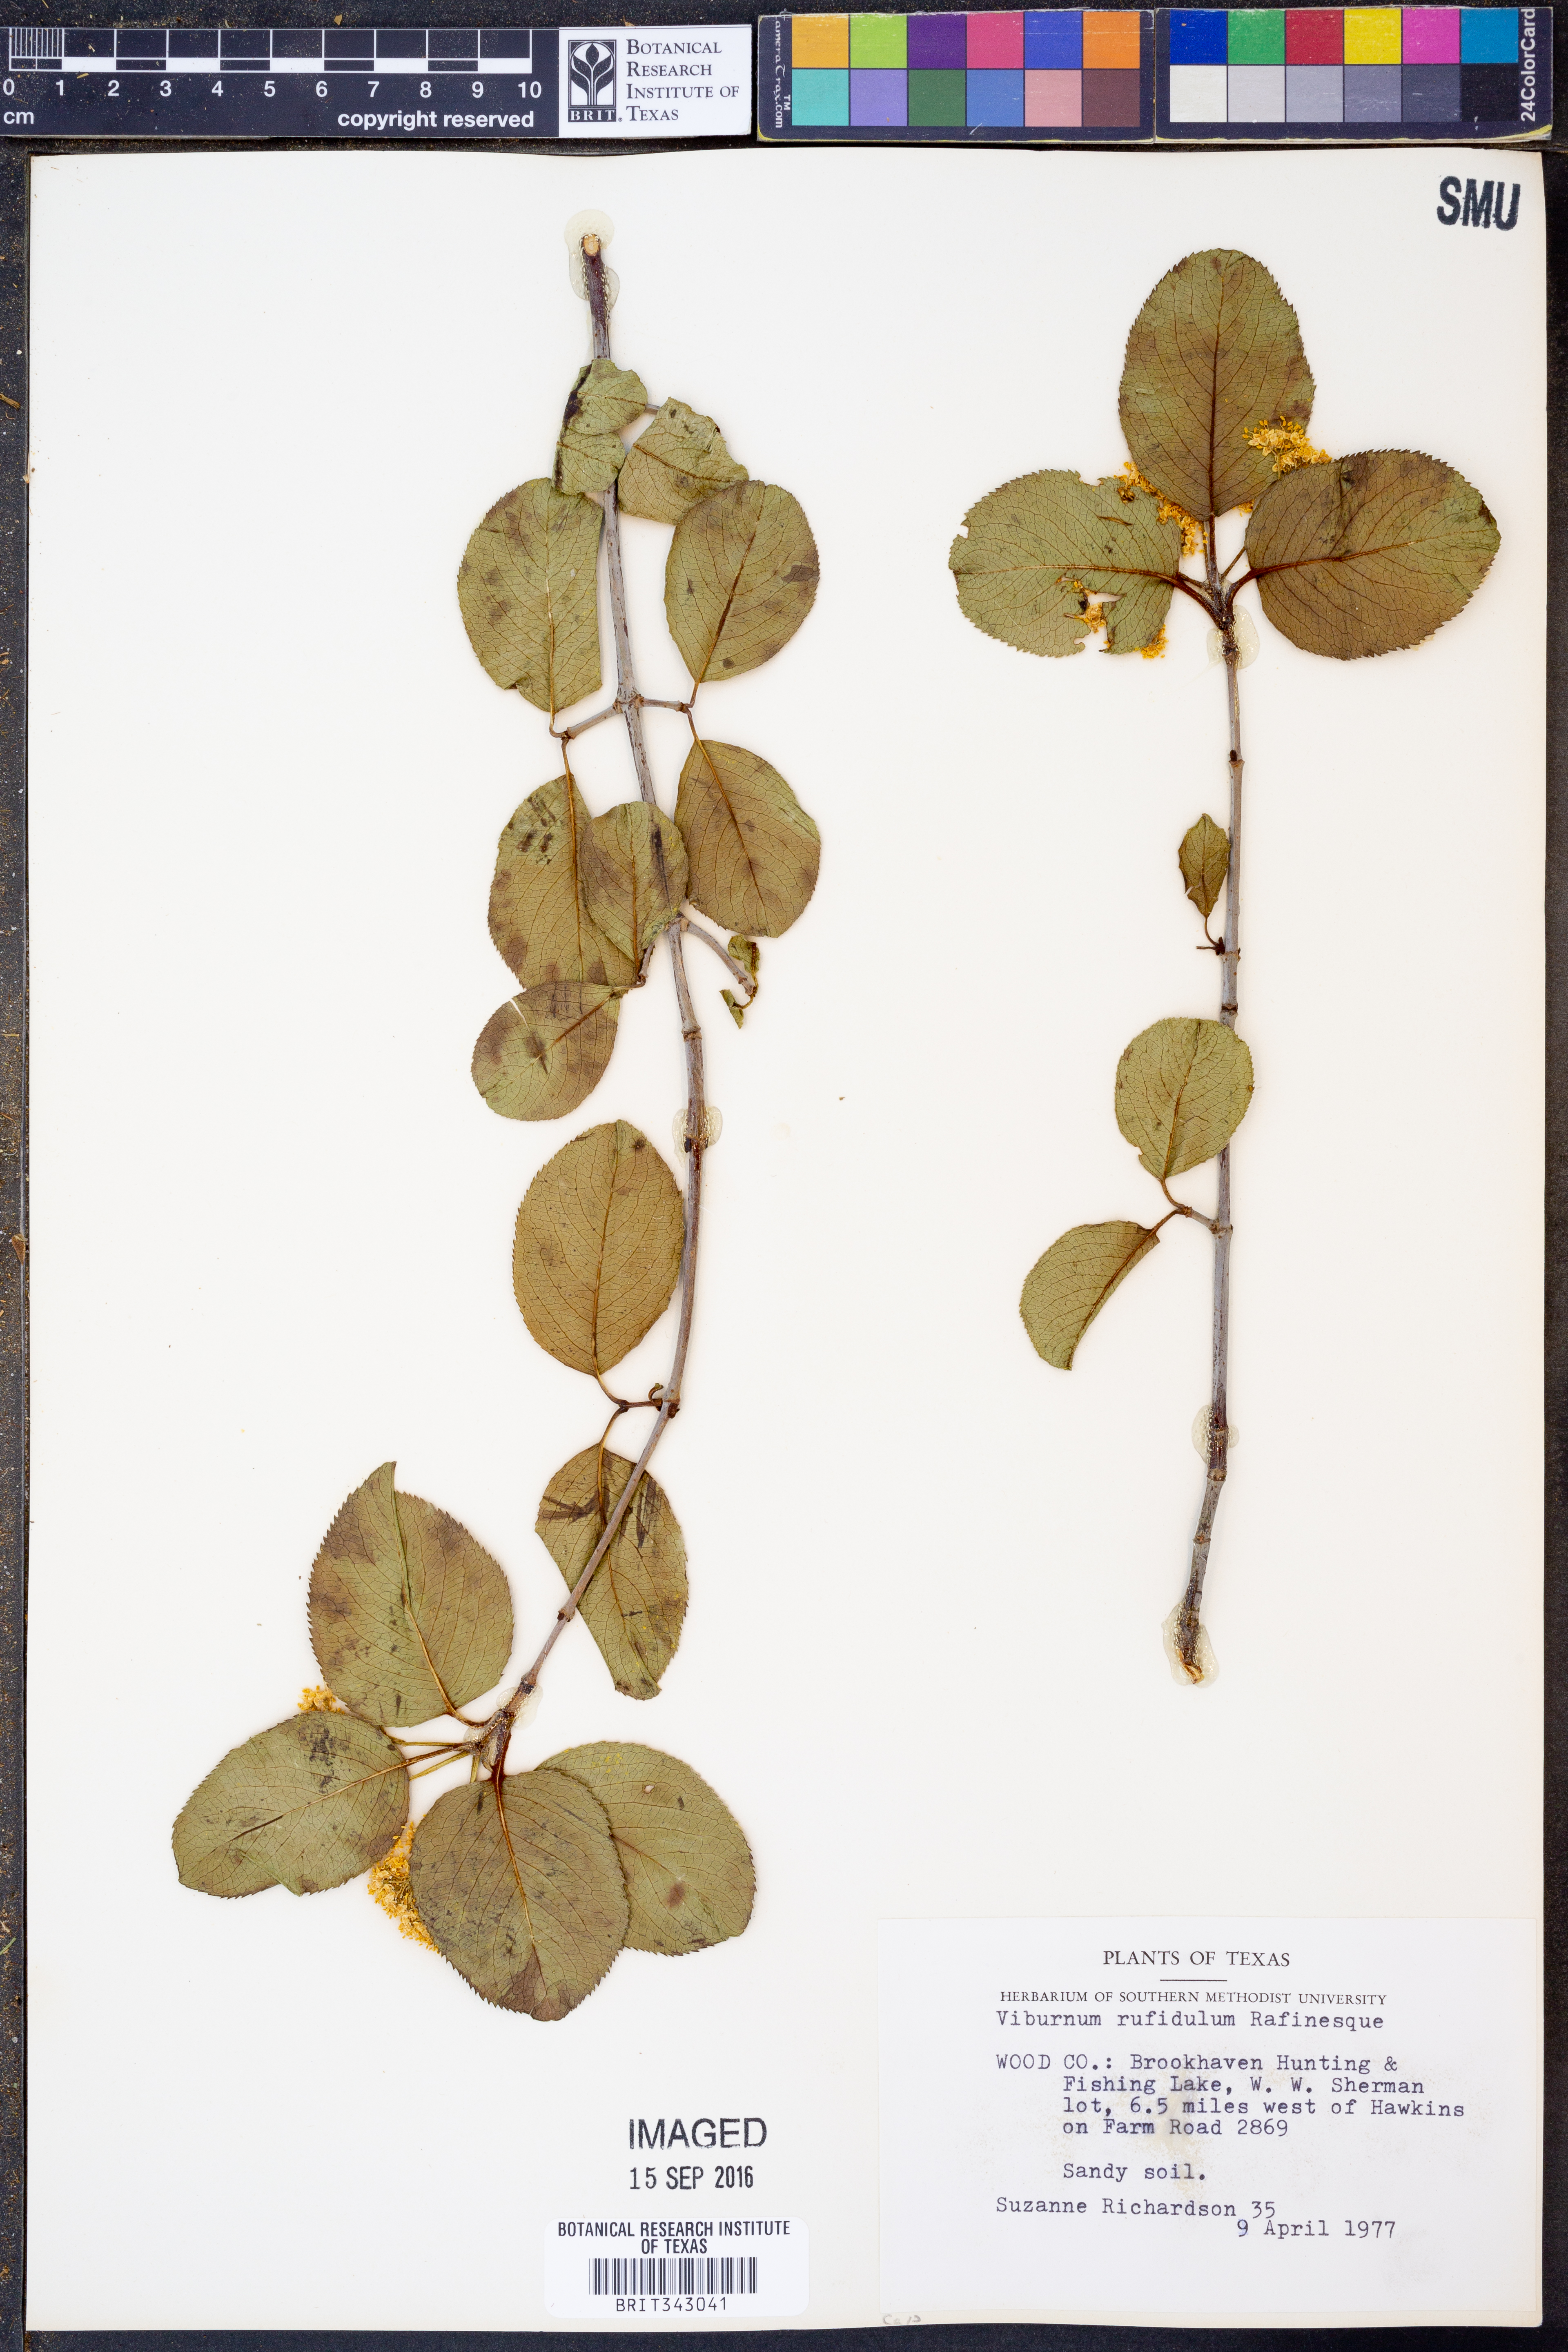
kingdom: Plantae
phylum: Tracheophyta
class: Magnoliopsida
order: Dipsacales
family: Viburnaceae
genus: Viburnum
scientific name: Viburnum rufidulum
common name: Blue haw
